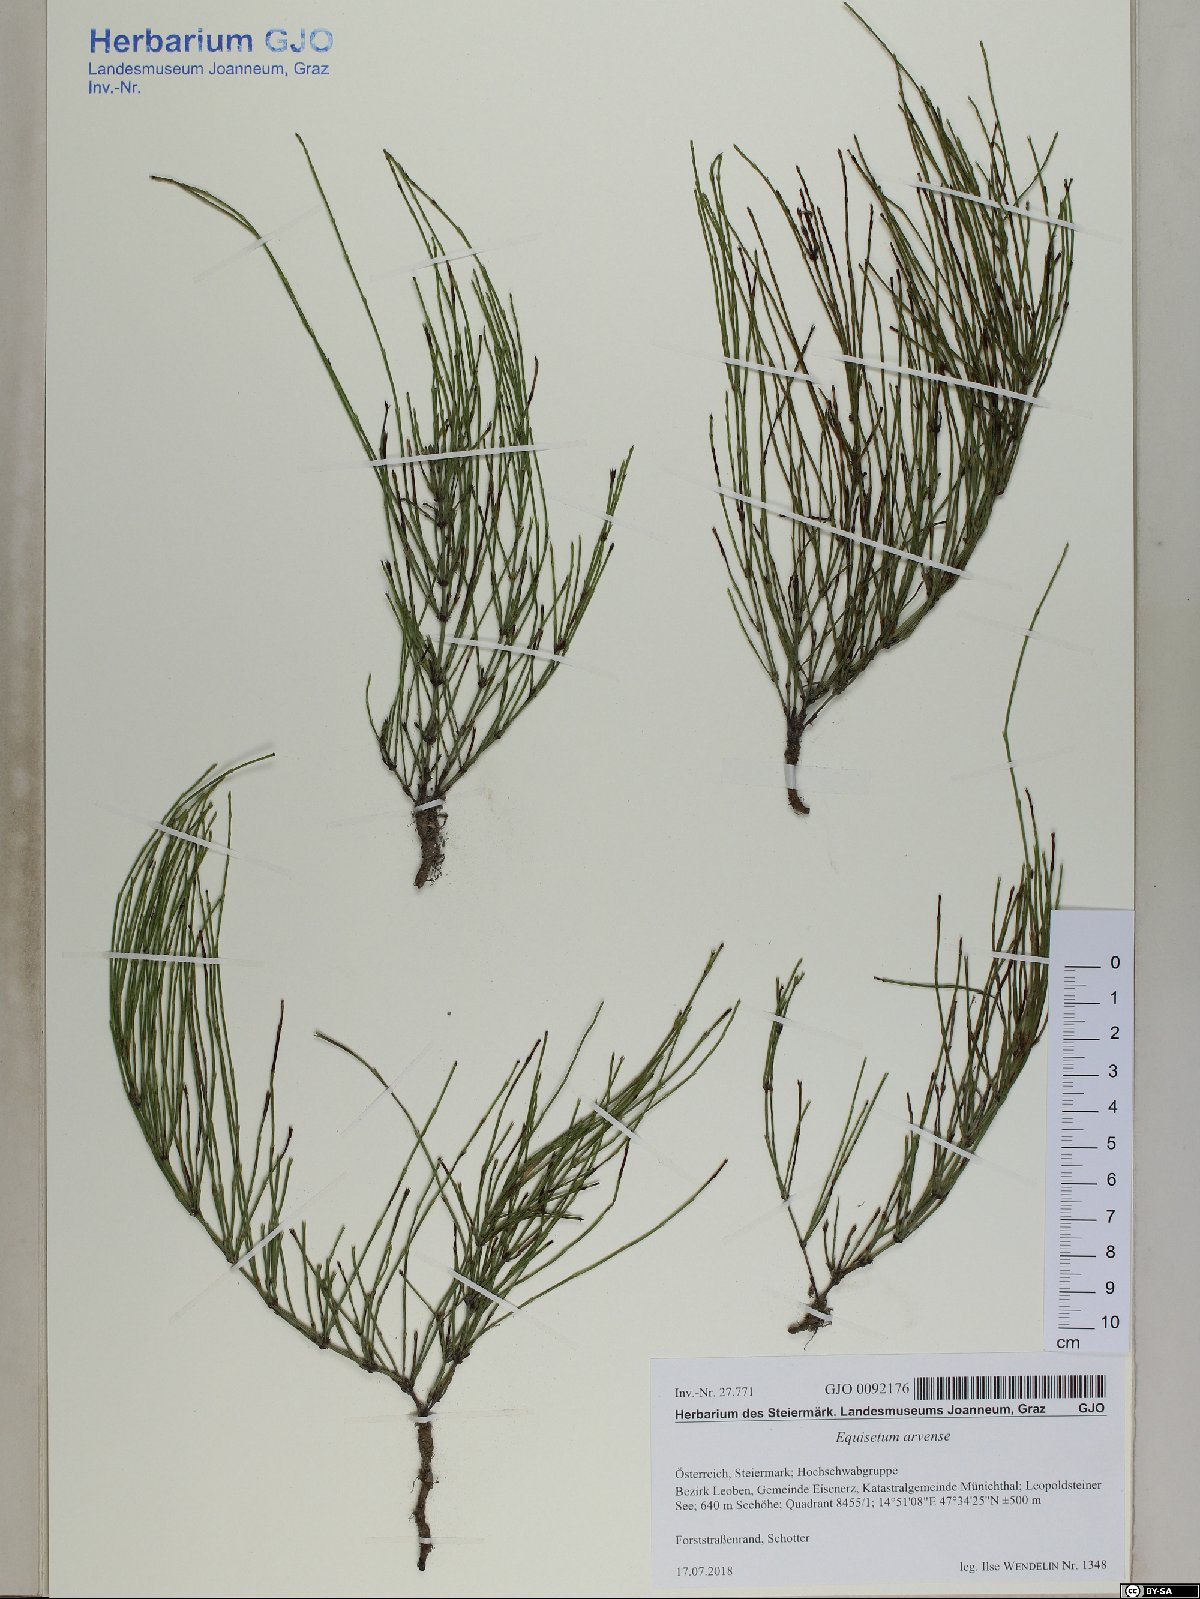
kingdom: Plantae
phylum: Tracheophyta
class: Polypodiopsida
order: Equisetales
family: Equisetaceae
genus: Equisetum
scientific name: Equisetum arvense
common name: Field horsetail
